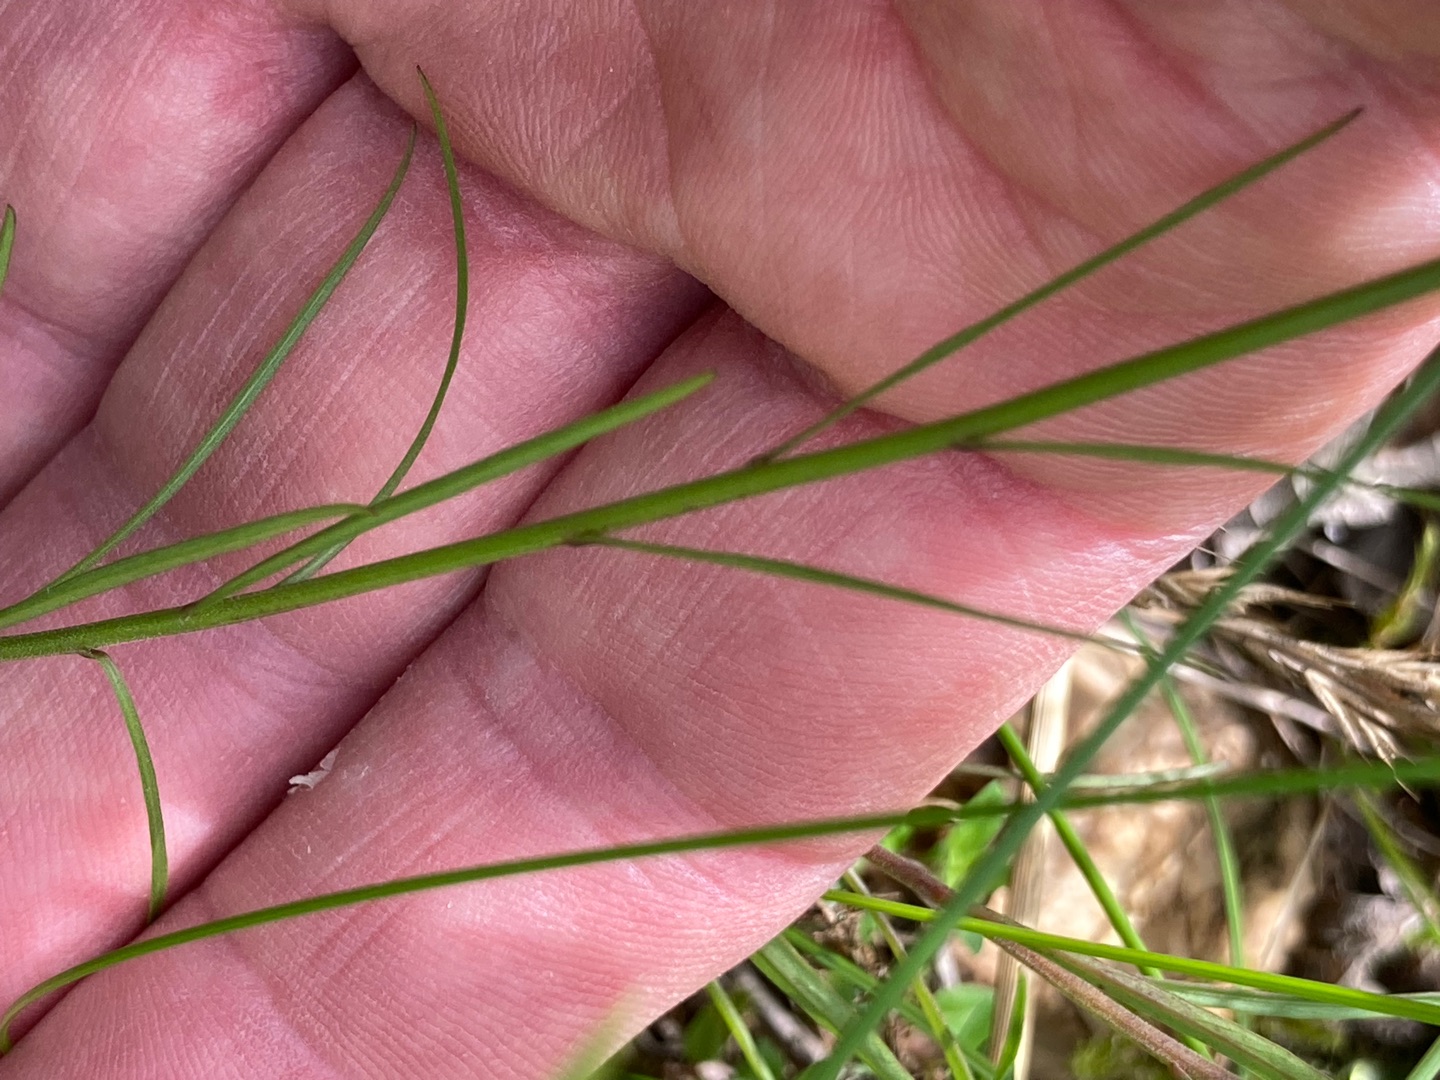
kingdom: Plantae
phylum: Tracheophyta
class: Magnoliopsida
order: Asterales
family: Campanulaceae
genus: Campanula
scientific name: Campanula rotundifolia
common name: Liden klokke
